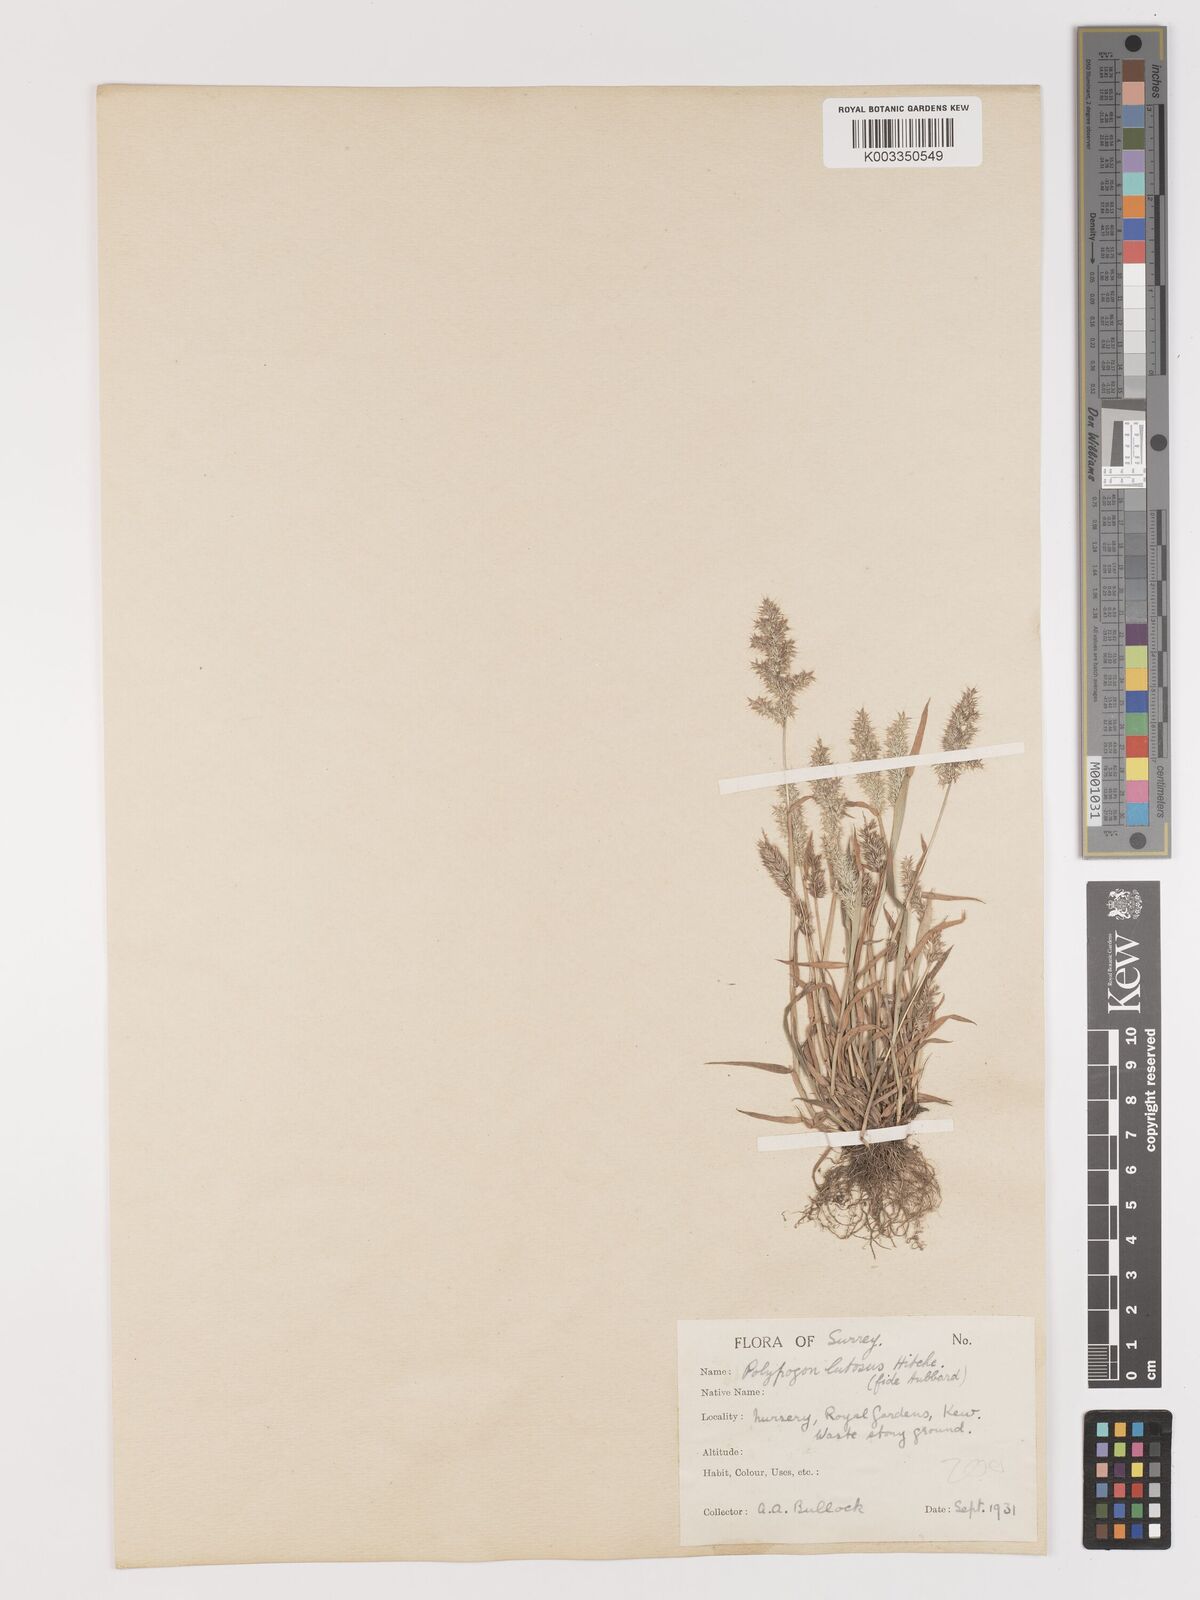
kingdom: Plantae
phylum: Tracheophyta
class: Liliopsida
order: Poales
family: Poaceae
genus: Agropogon
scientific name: Agropogon lutosus
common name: Coast agropogon
